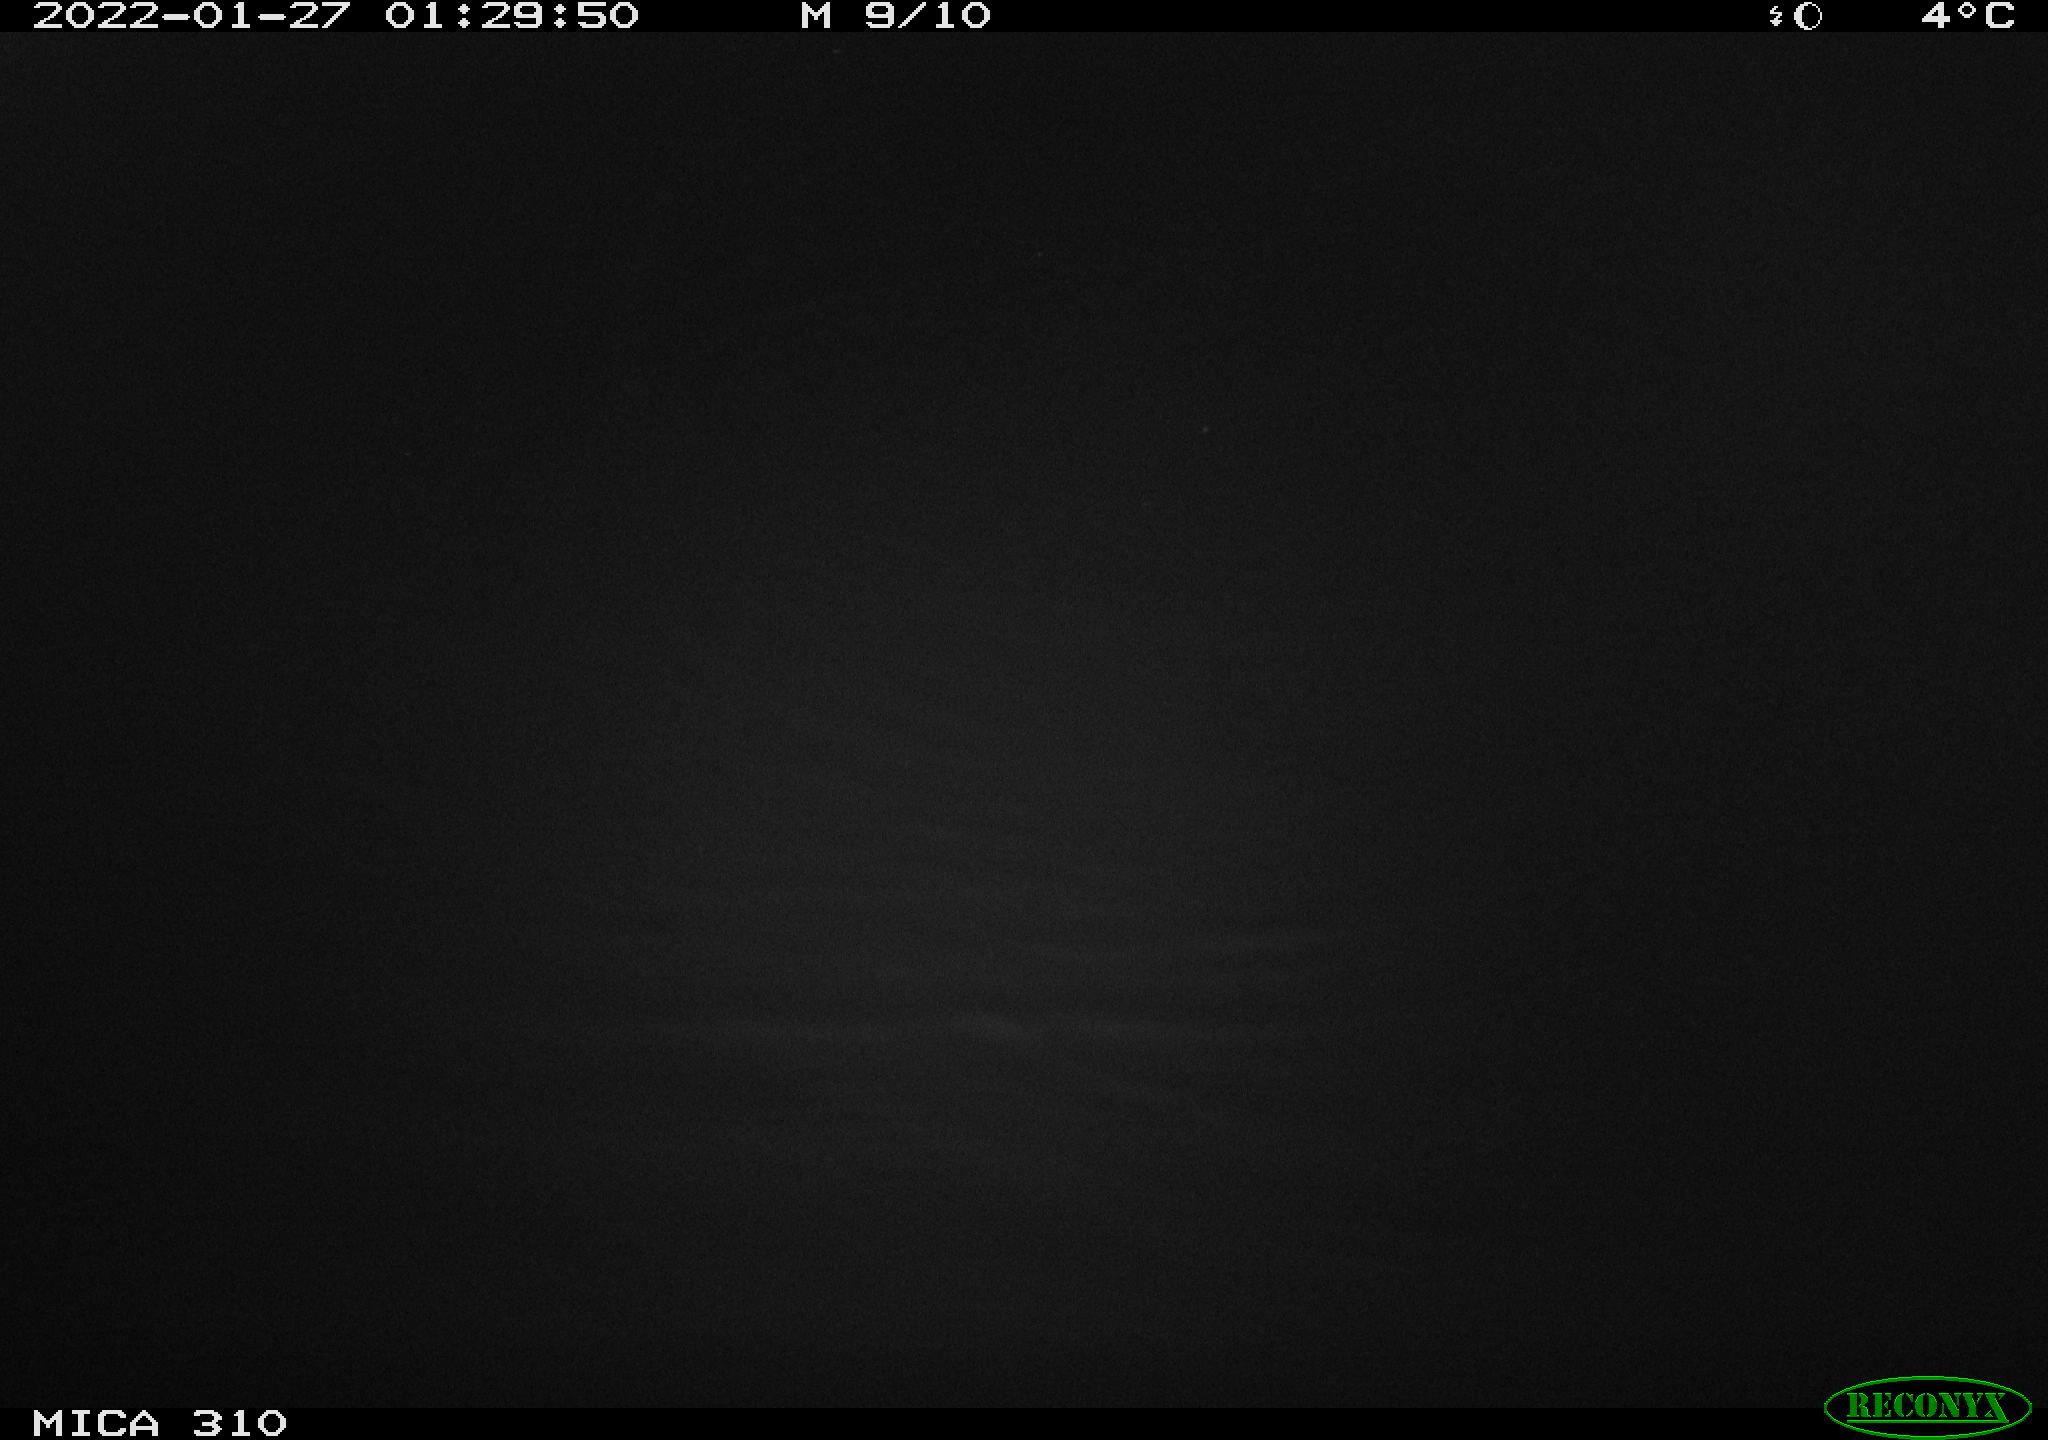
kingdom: Animalia
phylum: Chordata
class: Aves
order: Anseriformes
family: Anatidae
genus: Anas
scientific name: Anas
